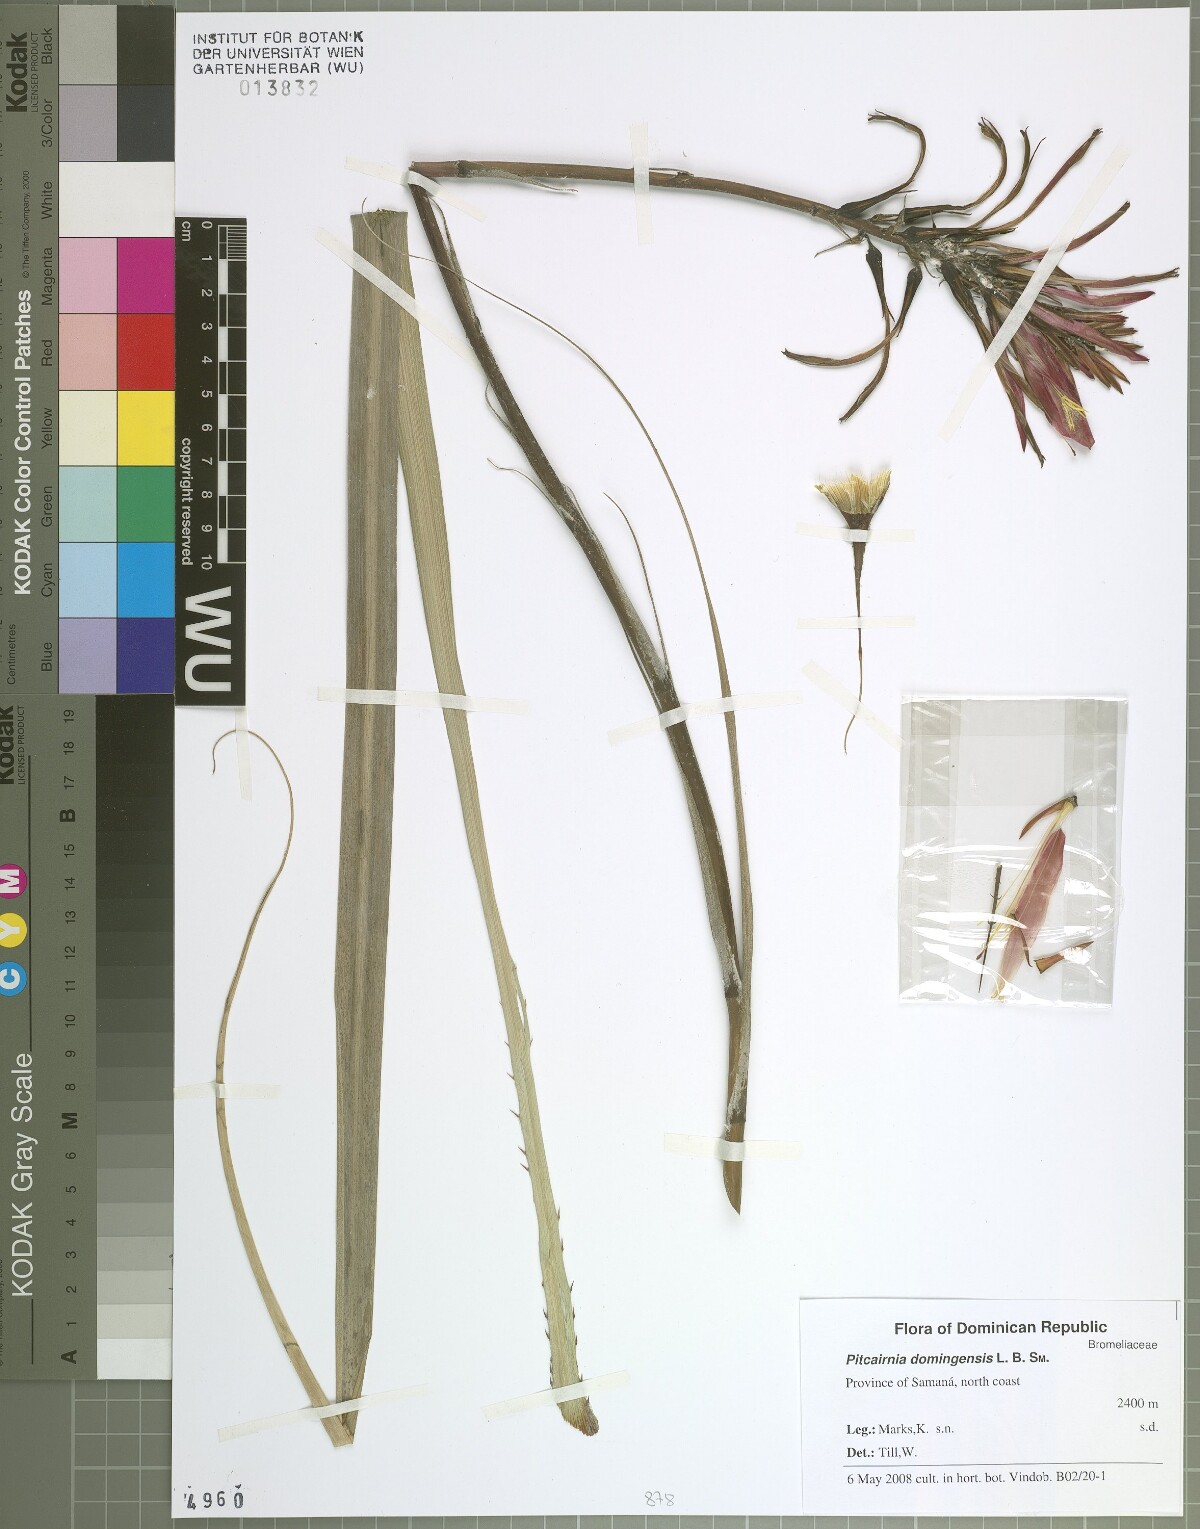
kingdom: Plantae
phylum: Tracheophyta
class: Liliopsida
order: Poales
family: Bromeliaceae
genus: Pitcairnia
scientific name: Pitcairnia domingensis
